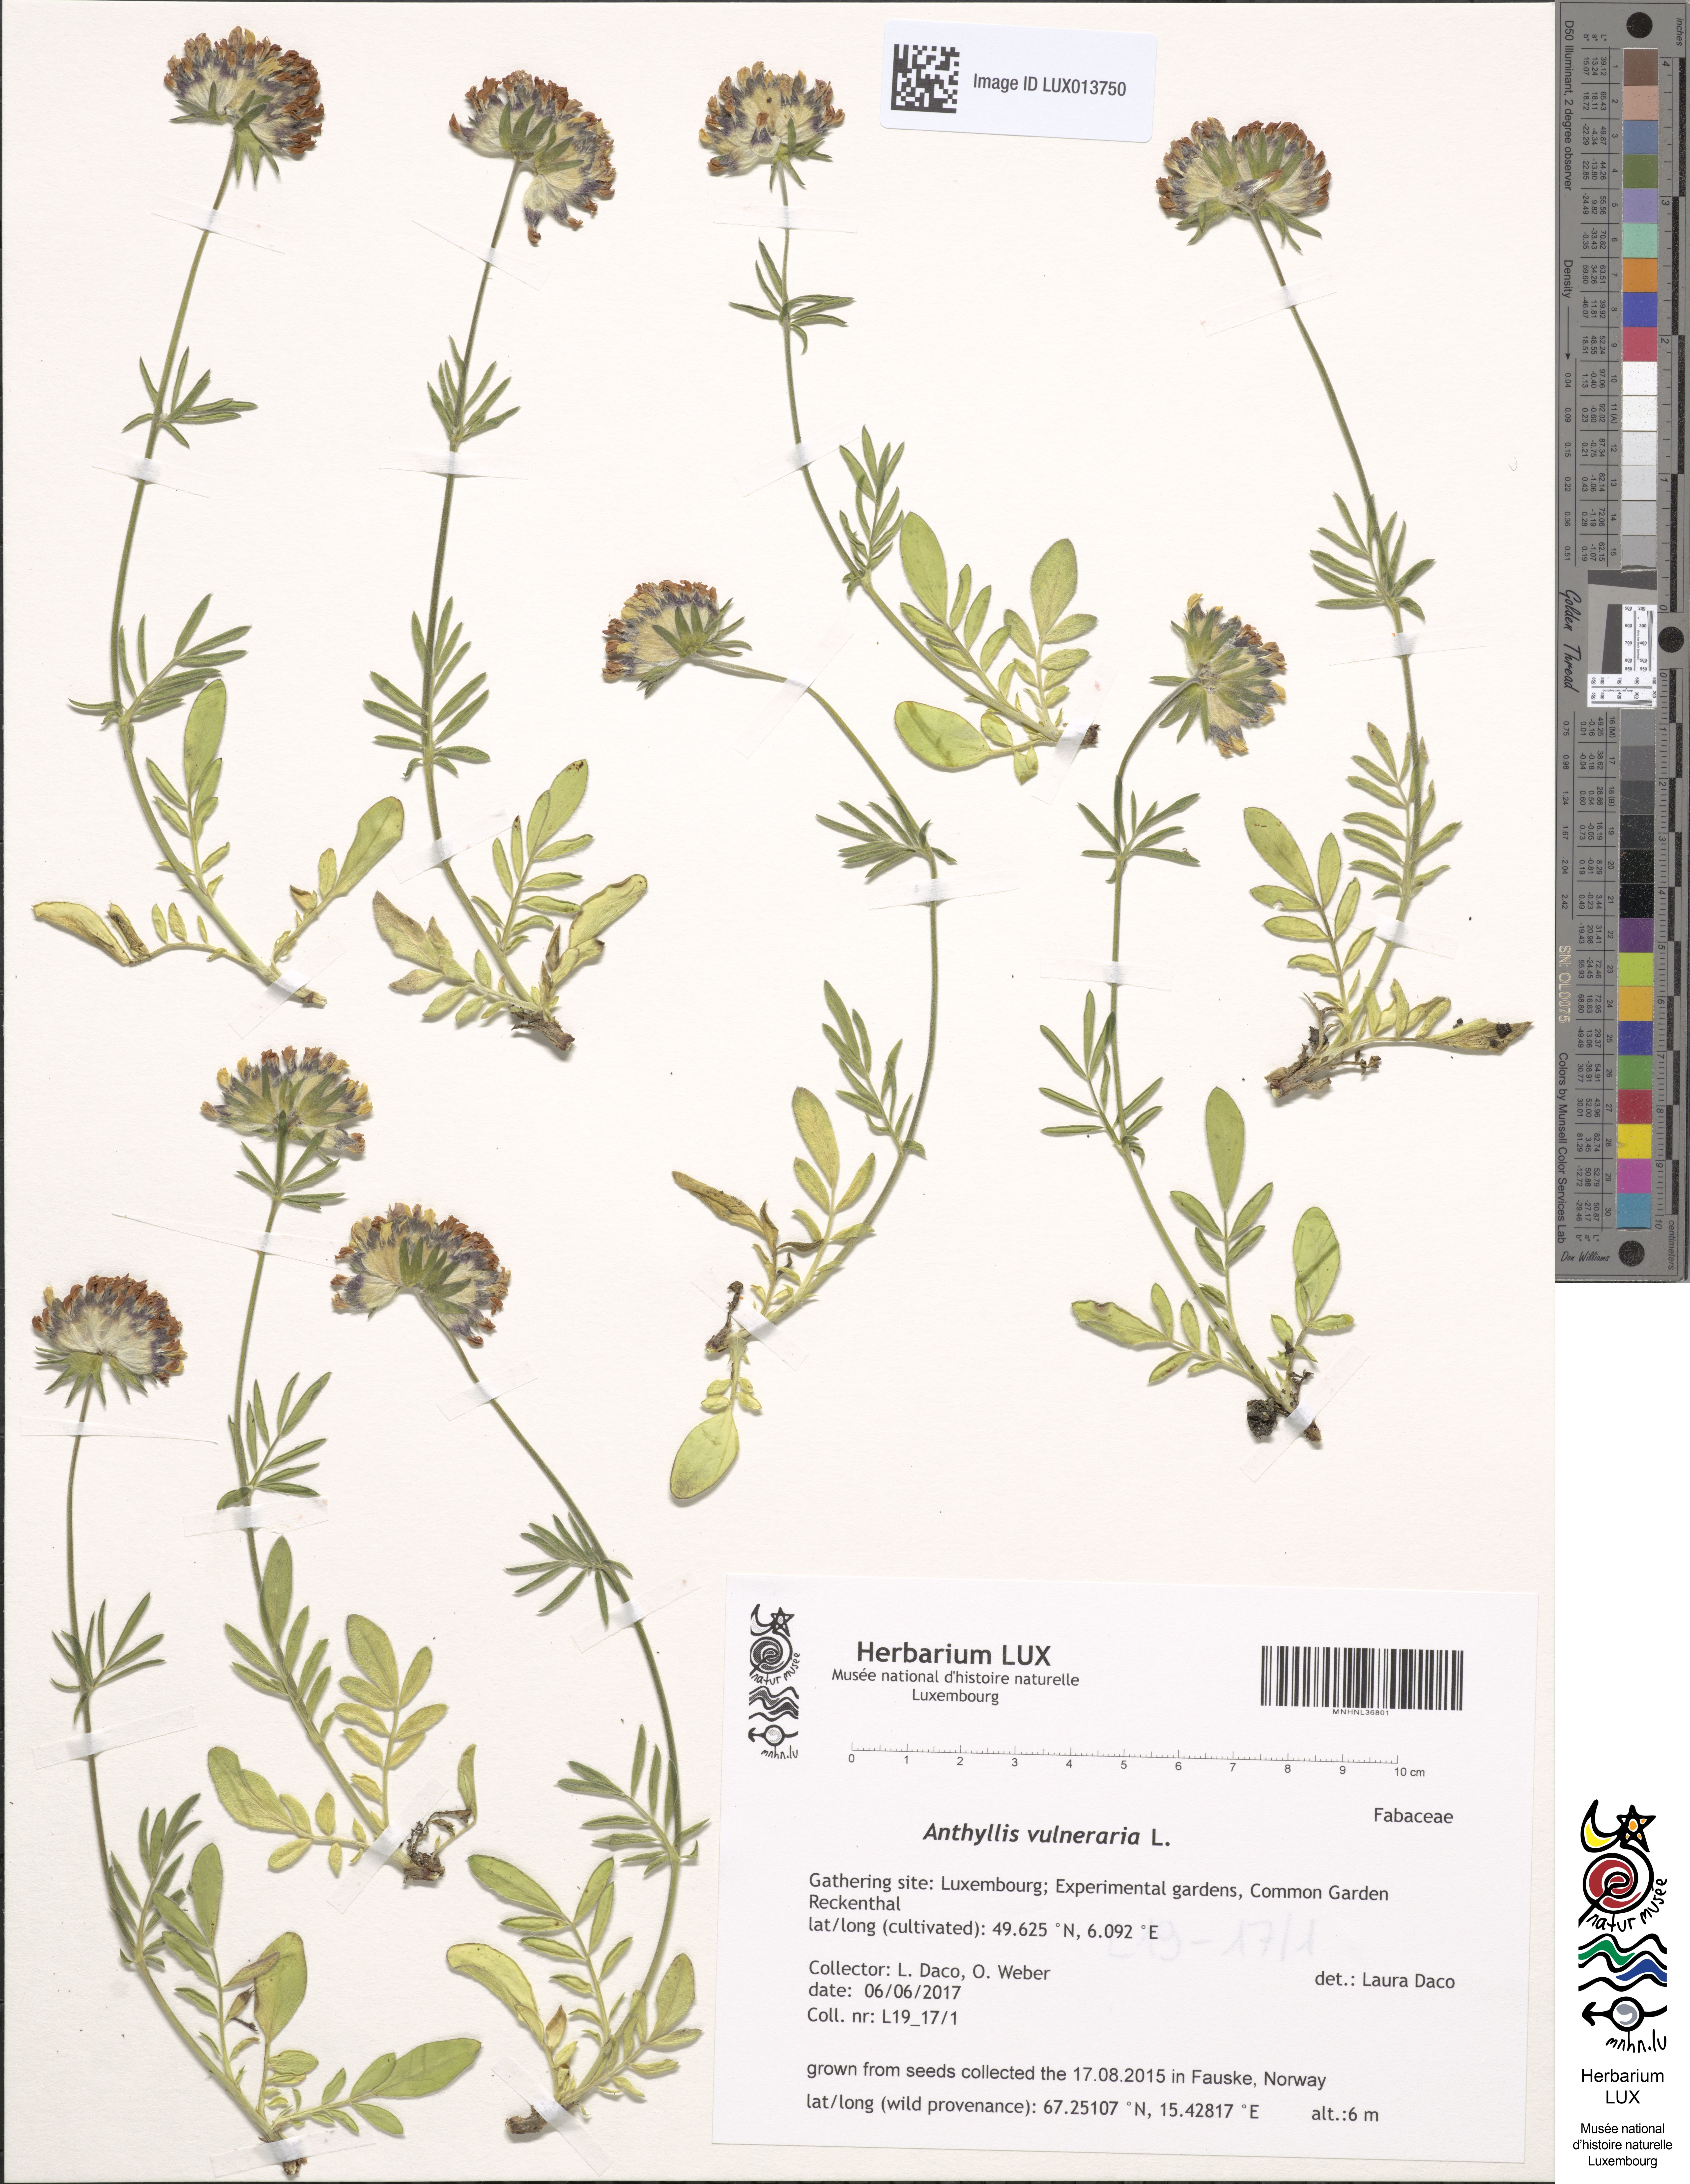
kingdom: Plantae
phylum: Tracheophyta
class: Magnoliopsida
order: Fabales
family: Fabaceae
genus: Anthyllis
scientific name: Anthyllis vulneraria
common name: Kidney vetch
